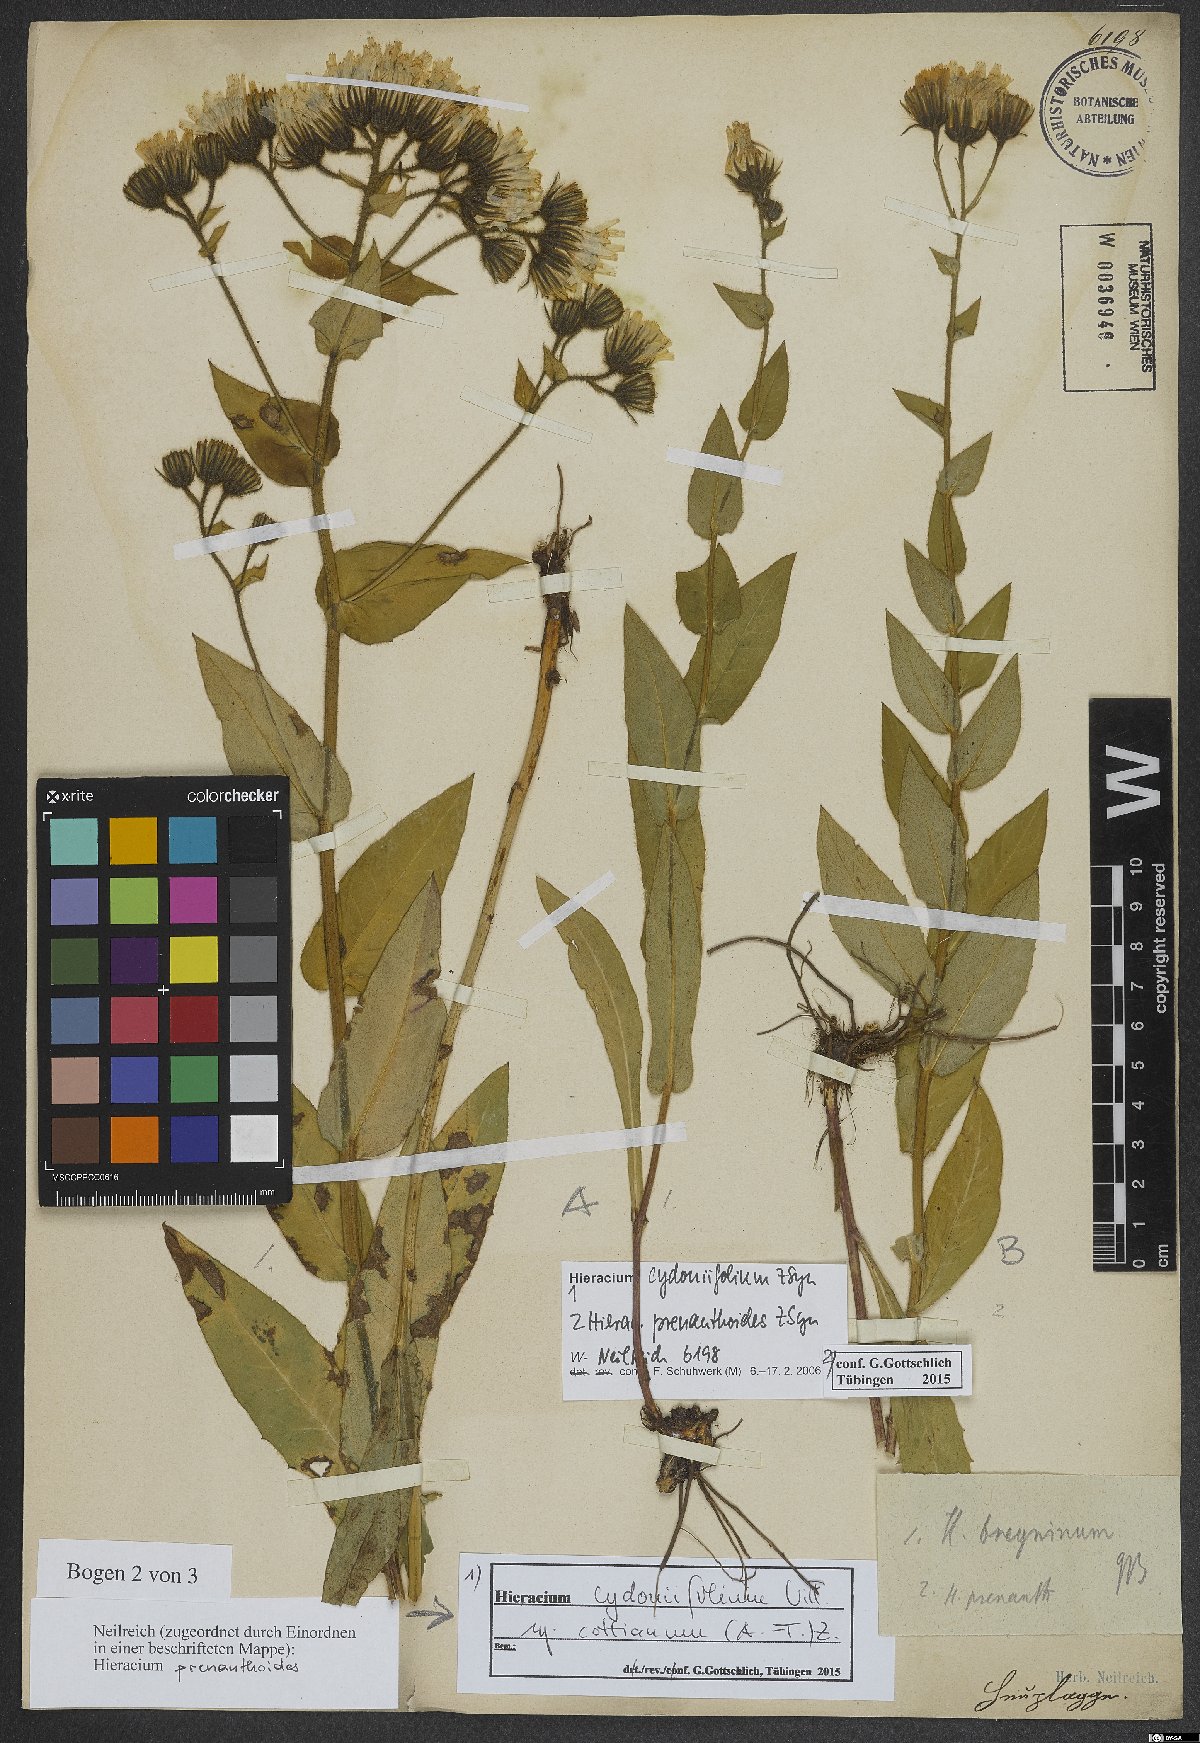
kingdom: Plantae
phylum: Tracheophyta
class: Magnoliopsida
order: Asterales
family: Asteraceae
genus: Hieracium
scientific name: Hieracium cydoniifolium
